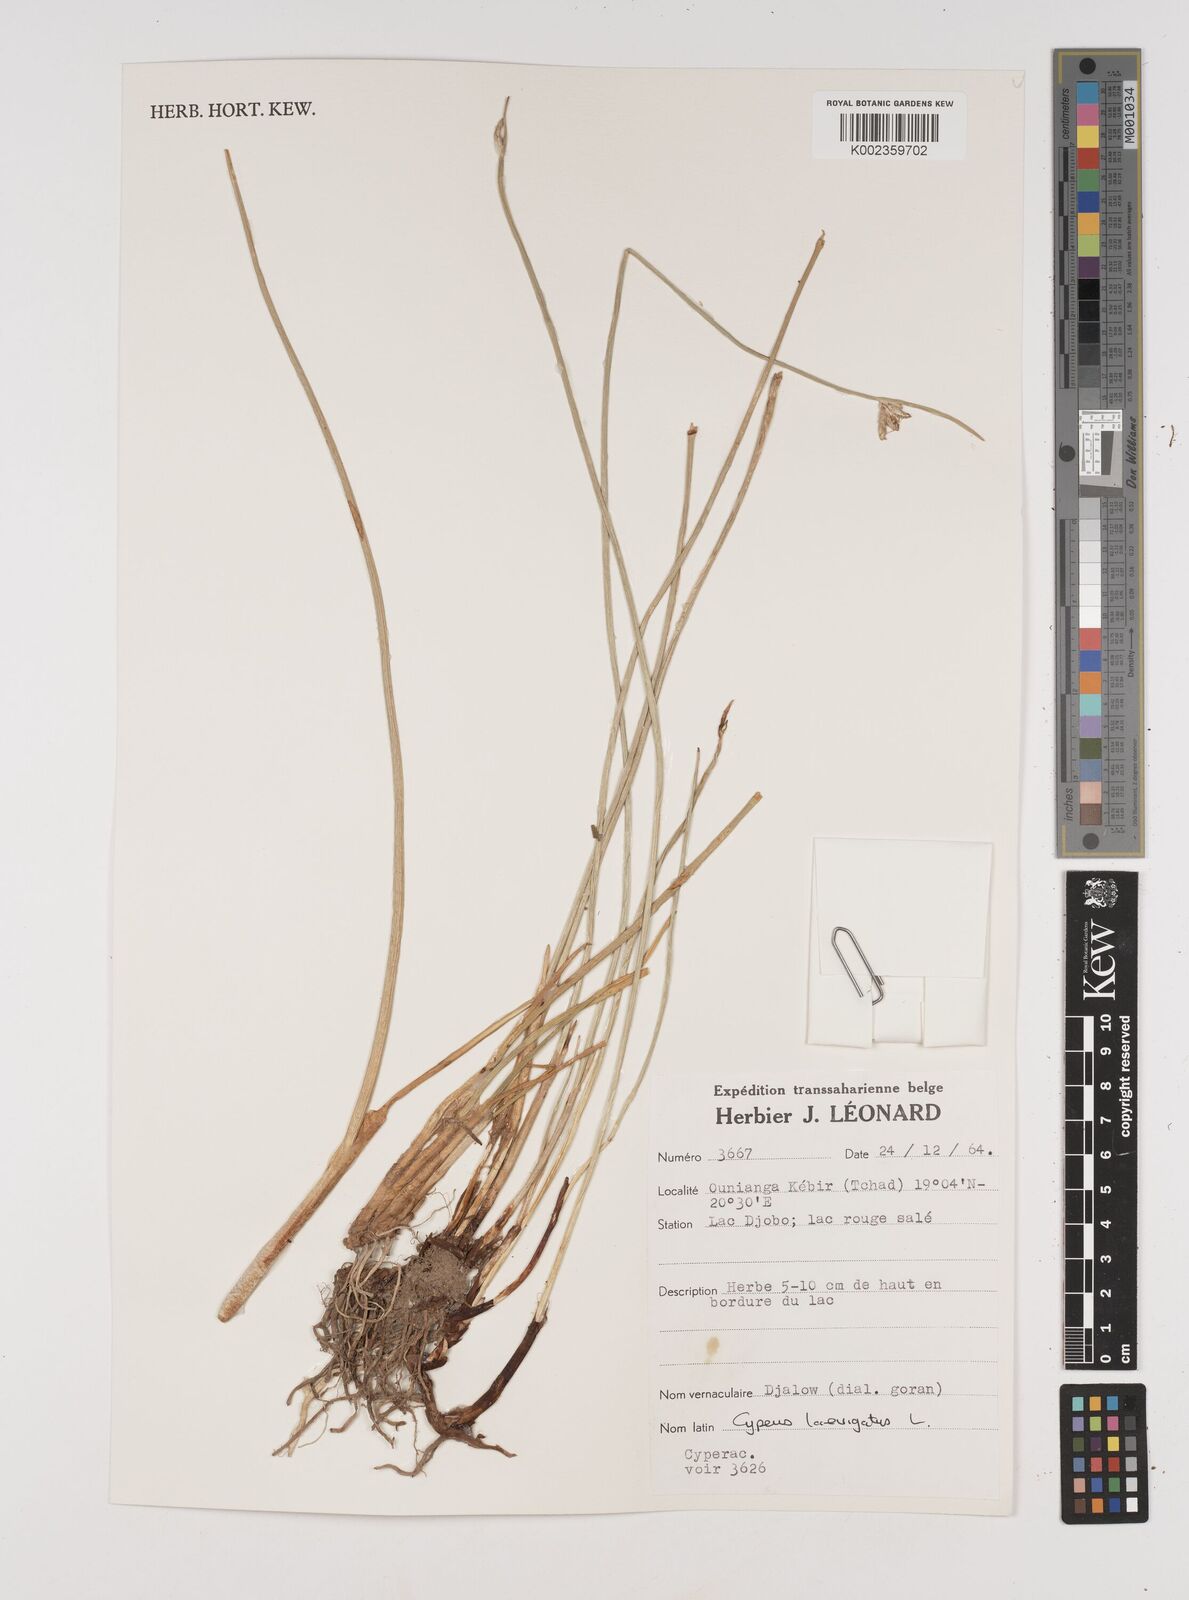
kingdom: Plantae
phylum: Tracheophyta
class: Liliopsida
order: Poales
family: Cyperaceae
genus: Cyperus
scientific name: Cyperus laevigatus
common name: Smooth flat sedge
